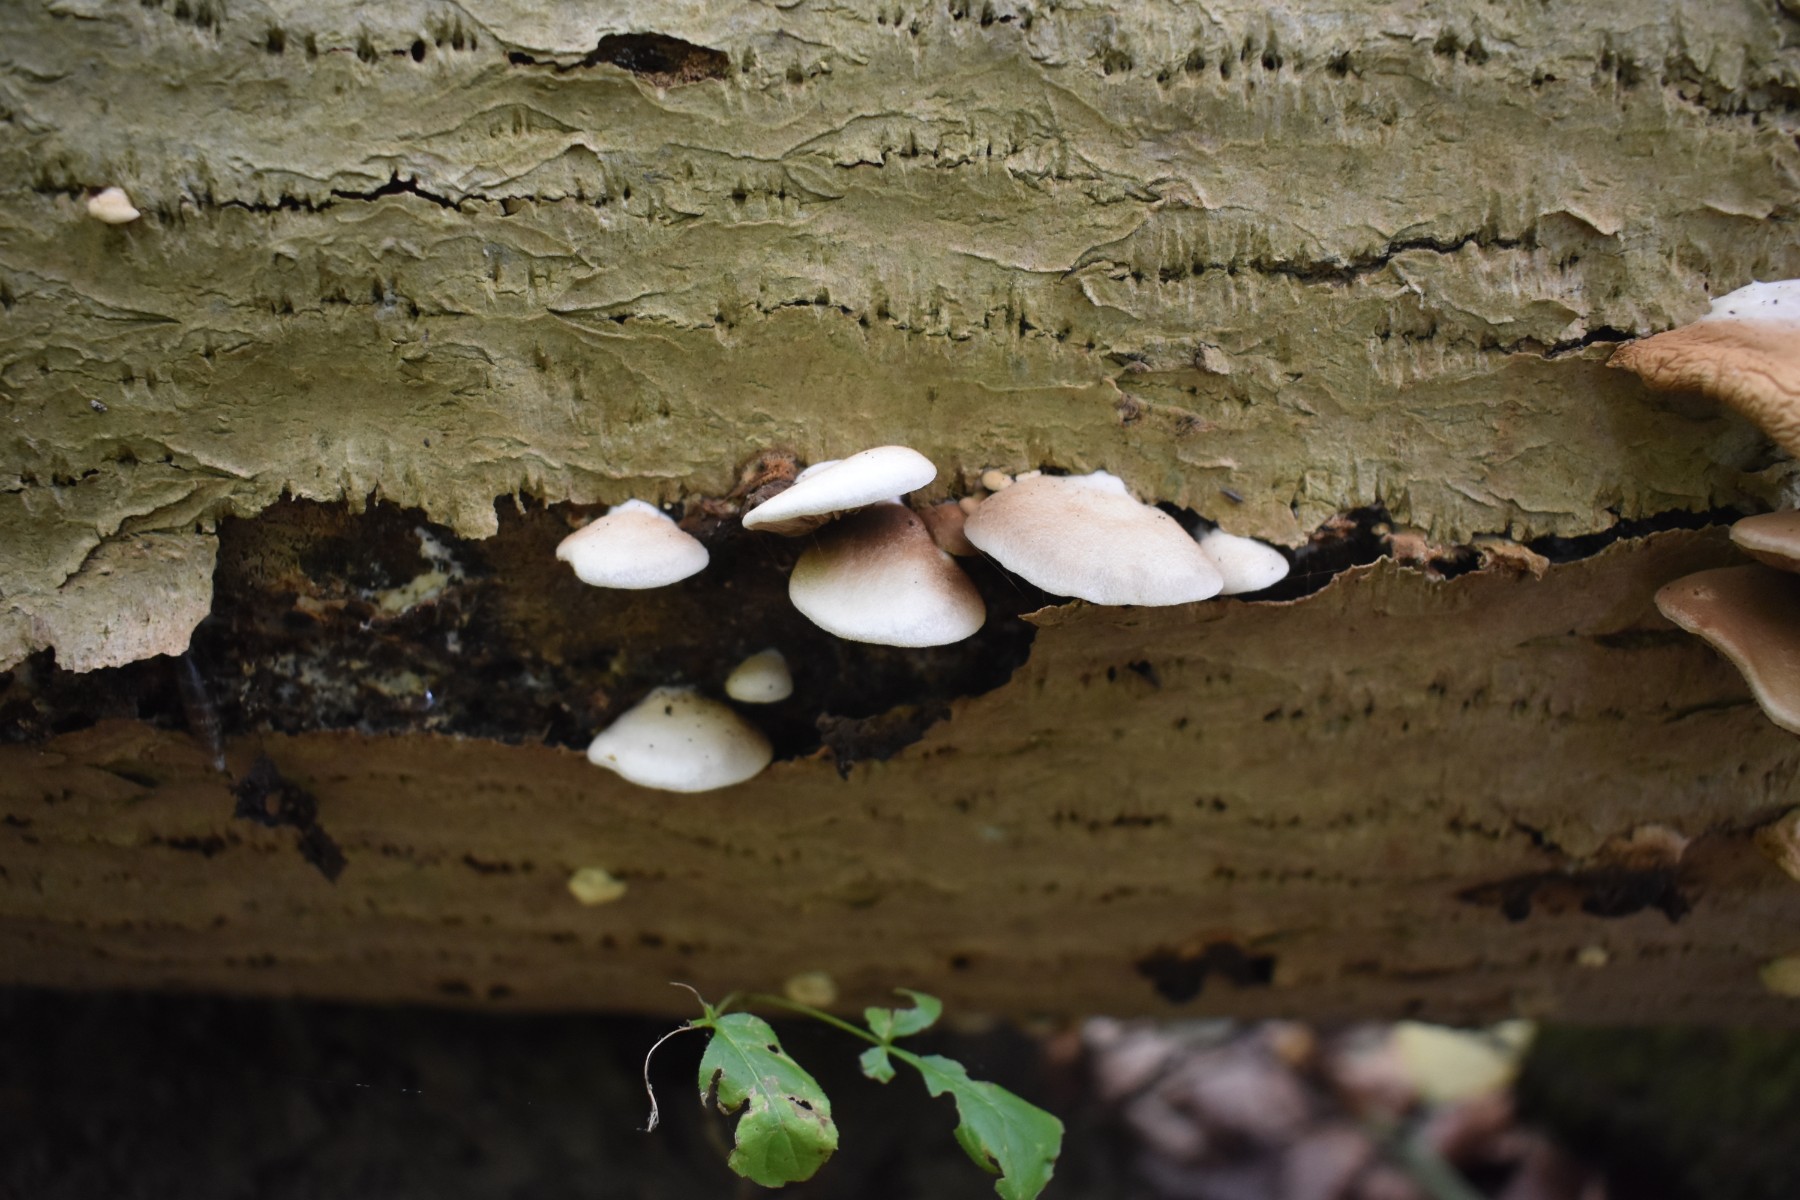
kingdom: Fungi
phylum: Basidiomycota
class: Agaricomycetes
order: Agaricales
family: Crepidotaceae
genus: Crepidotus
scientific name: Crepidotus mollis
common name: blød muslingesvamp
